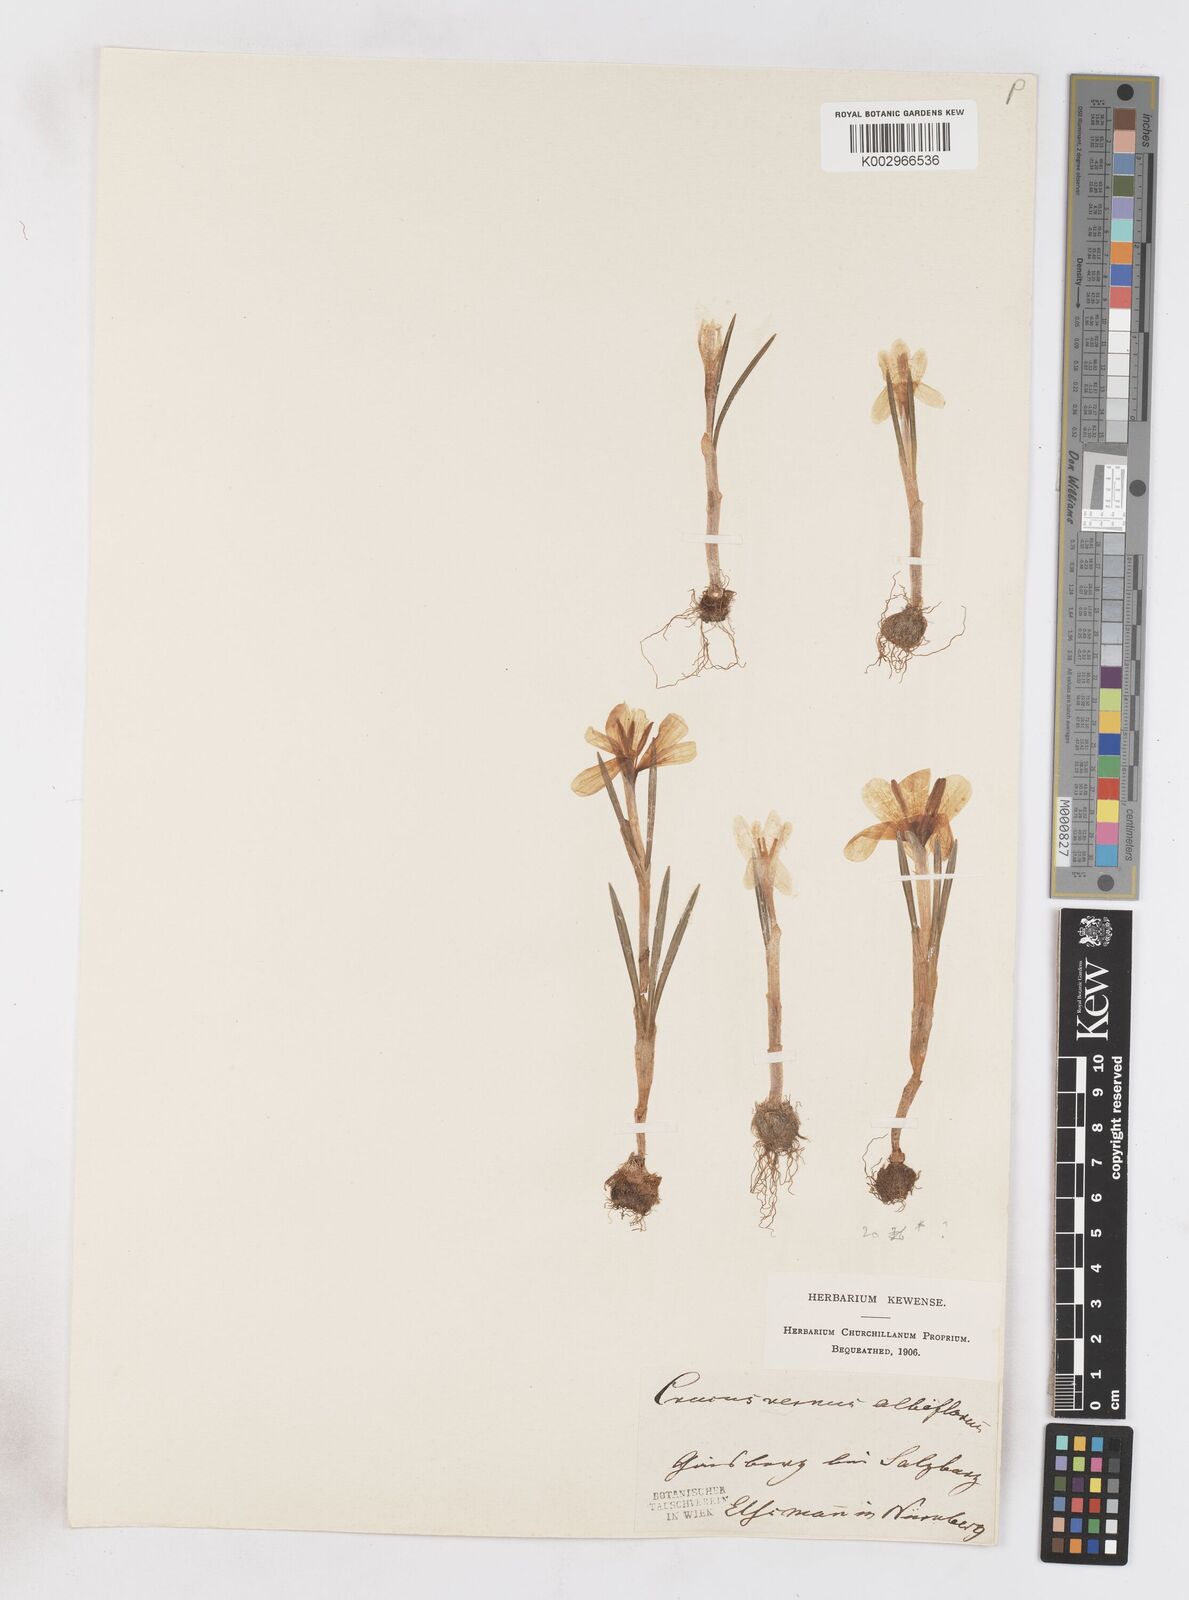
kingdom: Plantae
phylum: Tracheophyta
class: Liliopsida
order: Asparagales
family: Iridaceae
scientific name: Iridaceae
